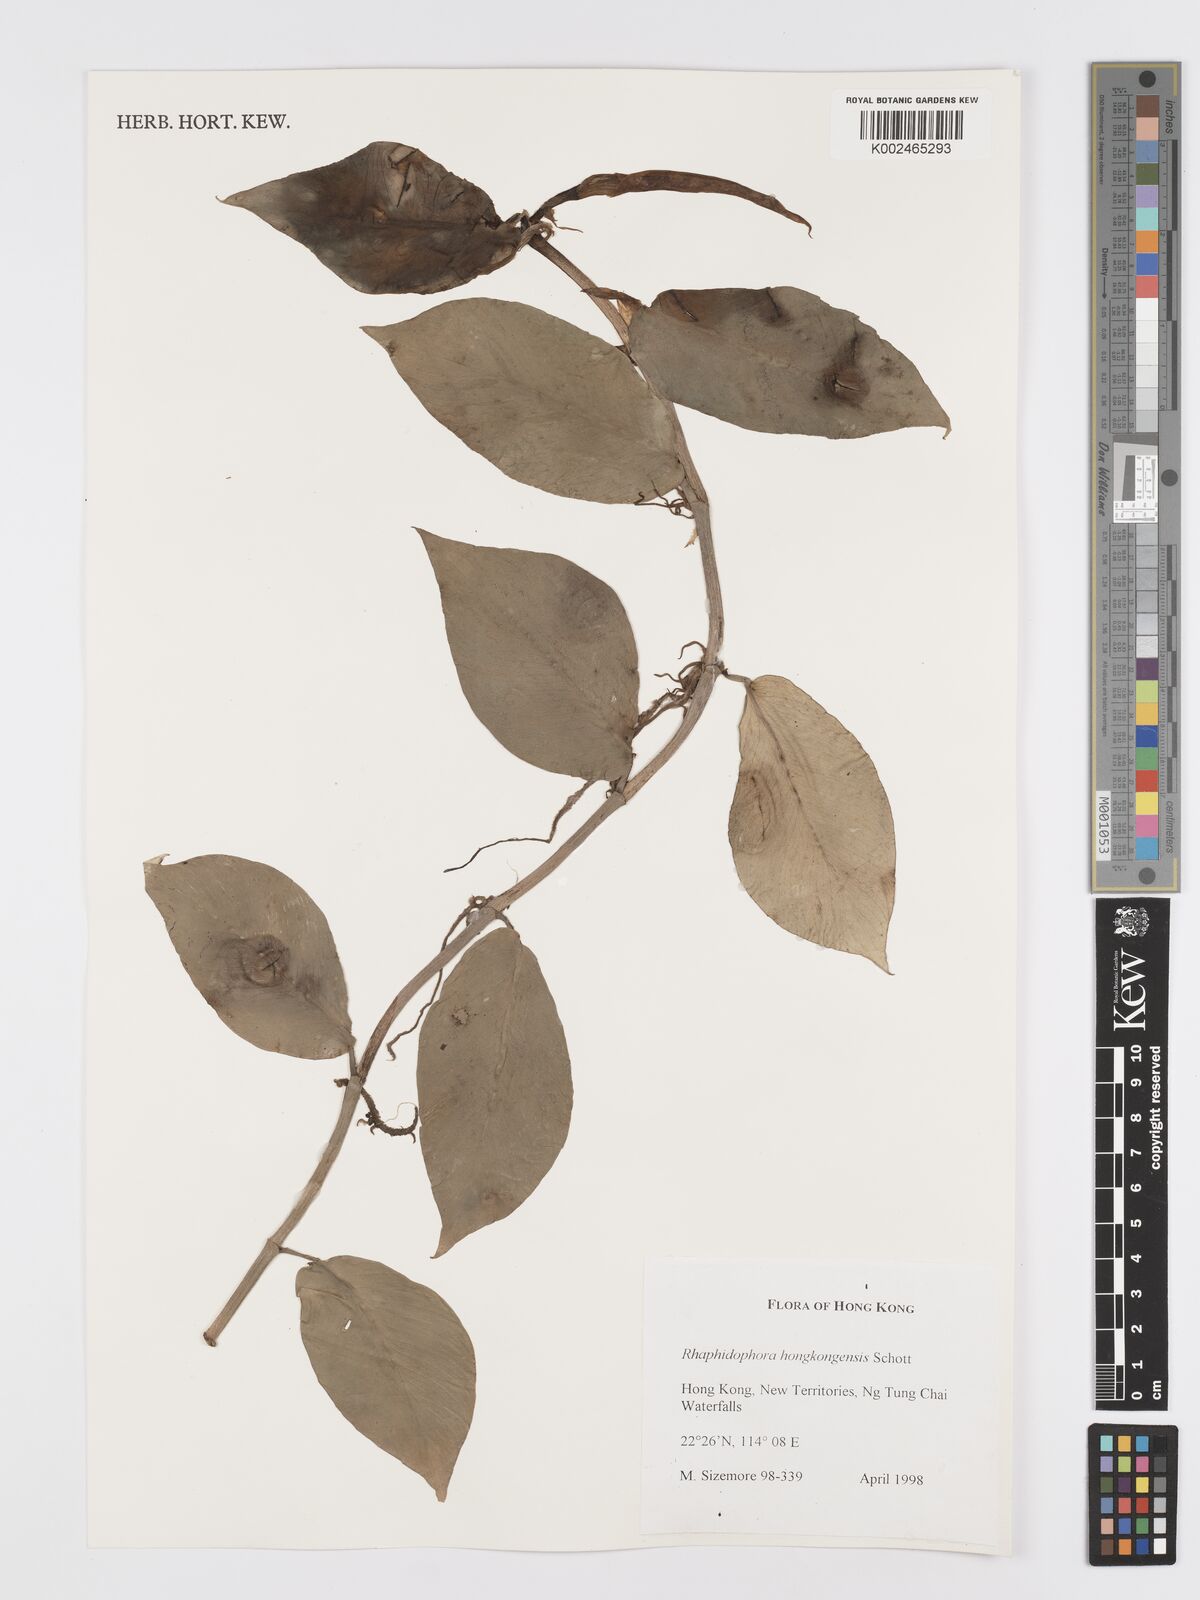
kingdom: Plantae
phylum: Tracheophyta
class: Liliopsida
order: Alismatales
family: Araceae
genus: Rhaphidophora
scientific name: Rhaphidophora hongkongensis
